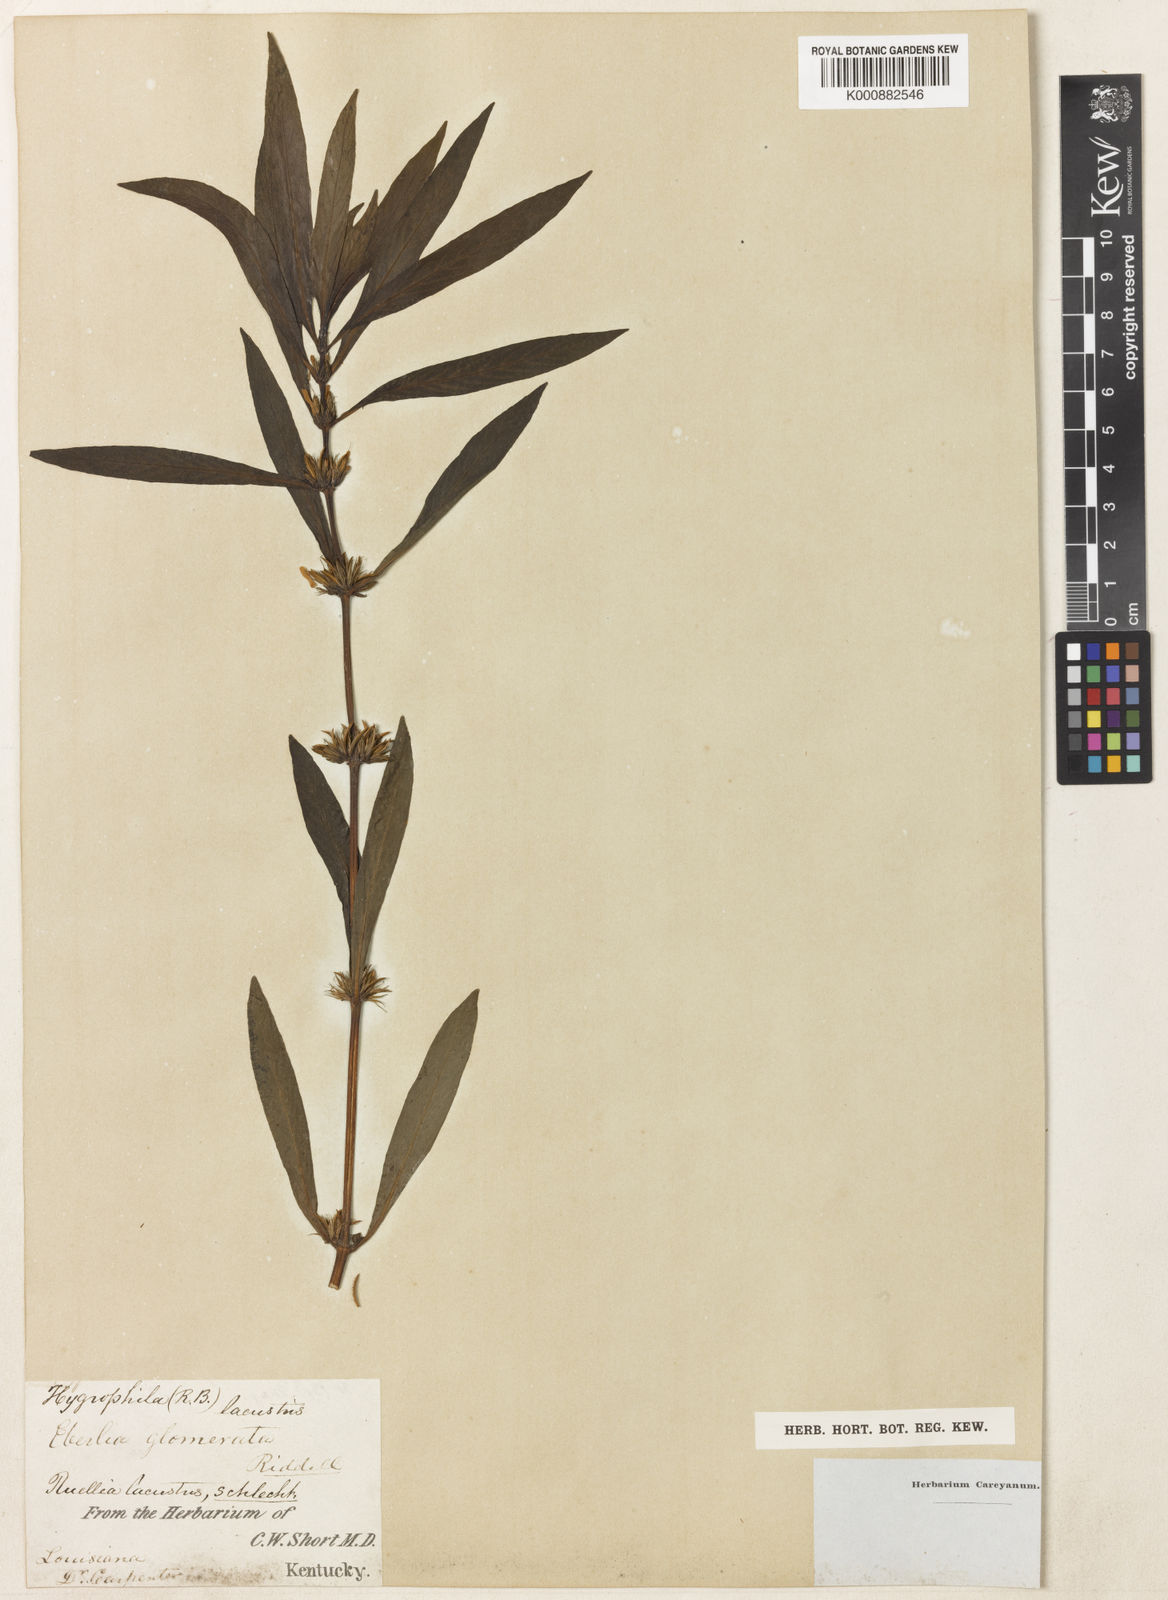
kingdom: Plantae
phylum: Tracheophyta
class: Magnoliopsida
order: Lamiales
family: Acanthaceae
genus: Hygrophila
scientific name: Hygrophila costata
